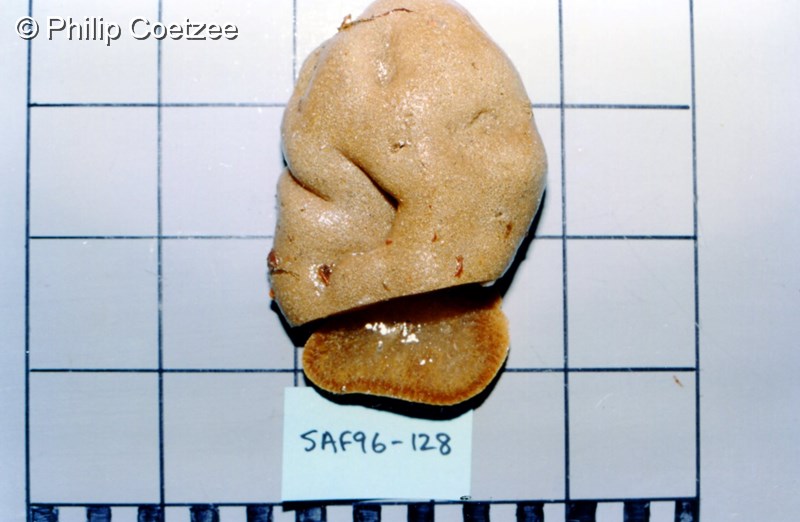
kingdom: Animalia
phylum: Chordata
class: Ascidiacea
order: Aplousobranchia
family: Polyclinidae
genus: Polyclinum
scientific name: Polyclinum isipingense
